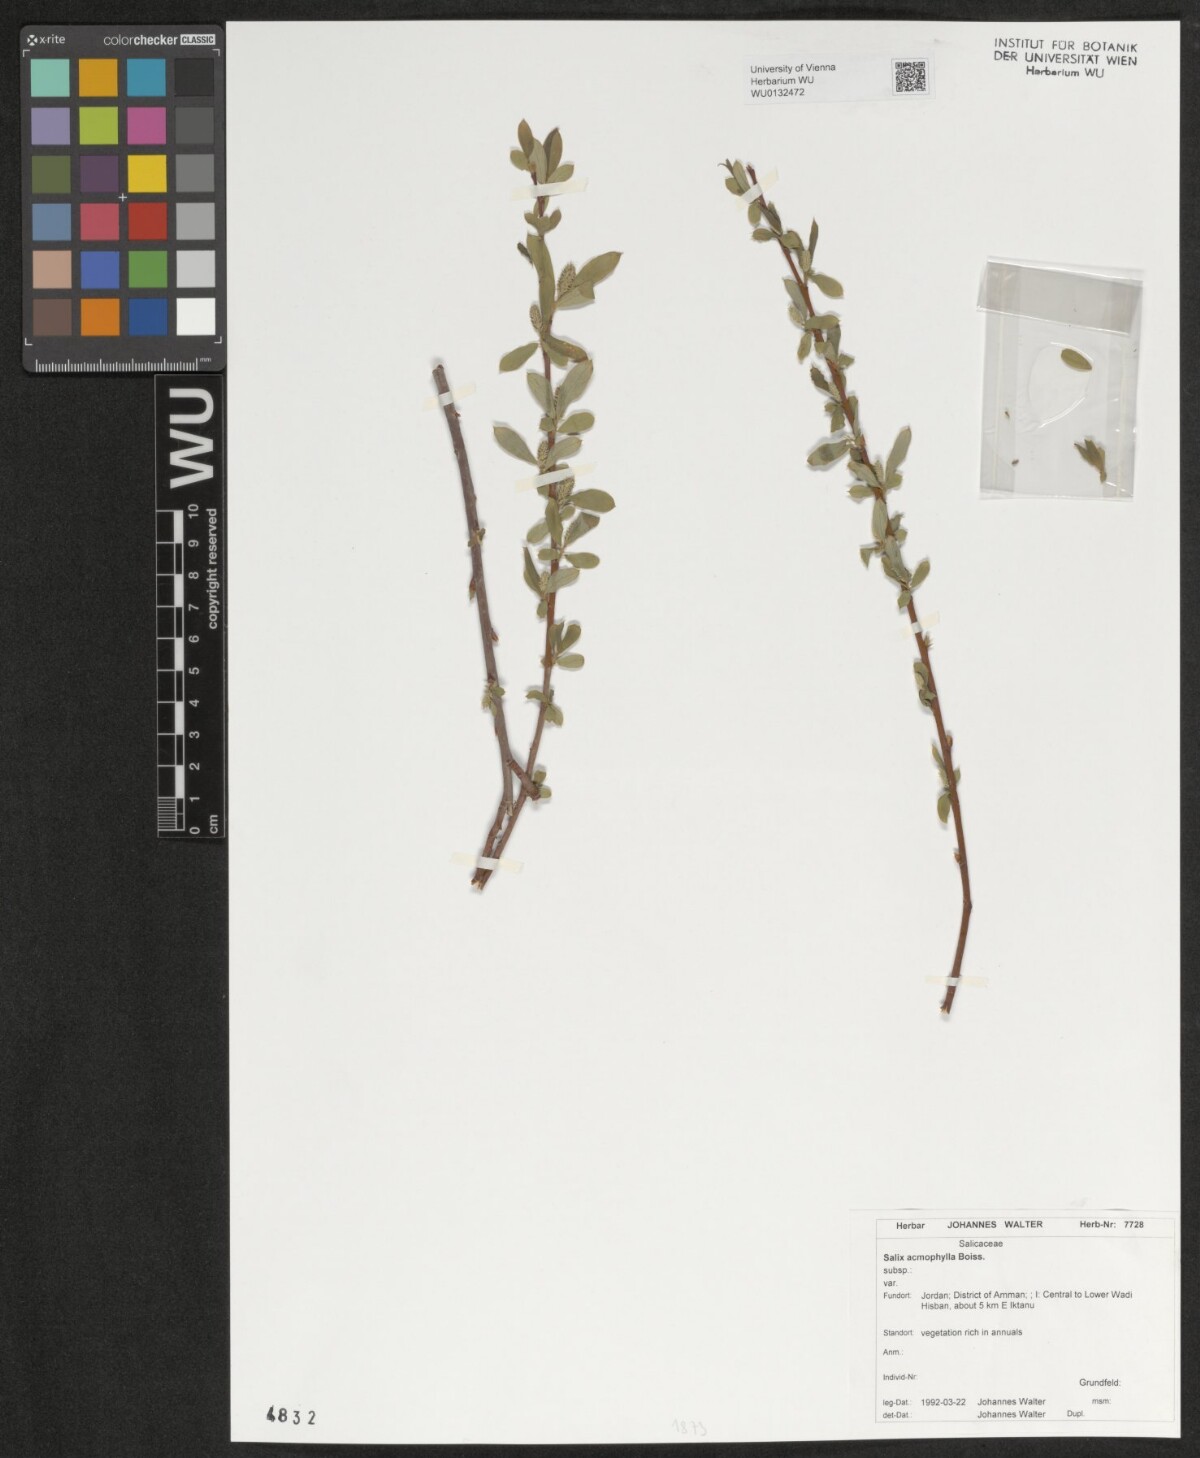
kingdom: Plantae
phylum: Tracheophyta
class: Magnoliopsida
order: Malpighiales
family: Salicaceae
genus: Salix
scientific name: Salix acmophylla
